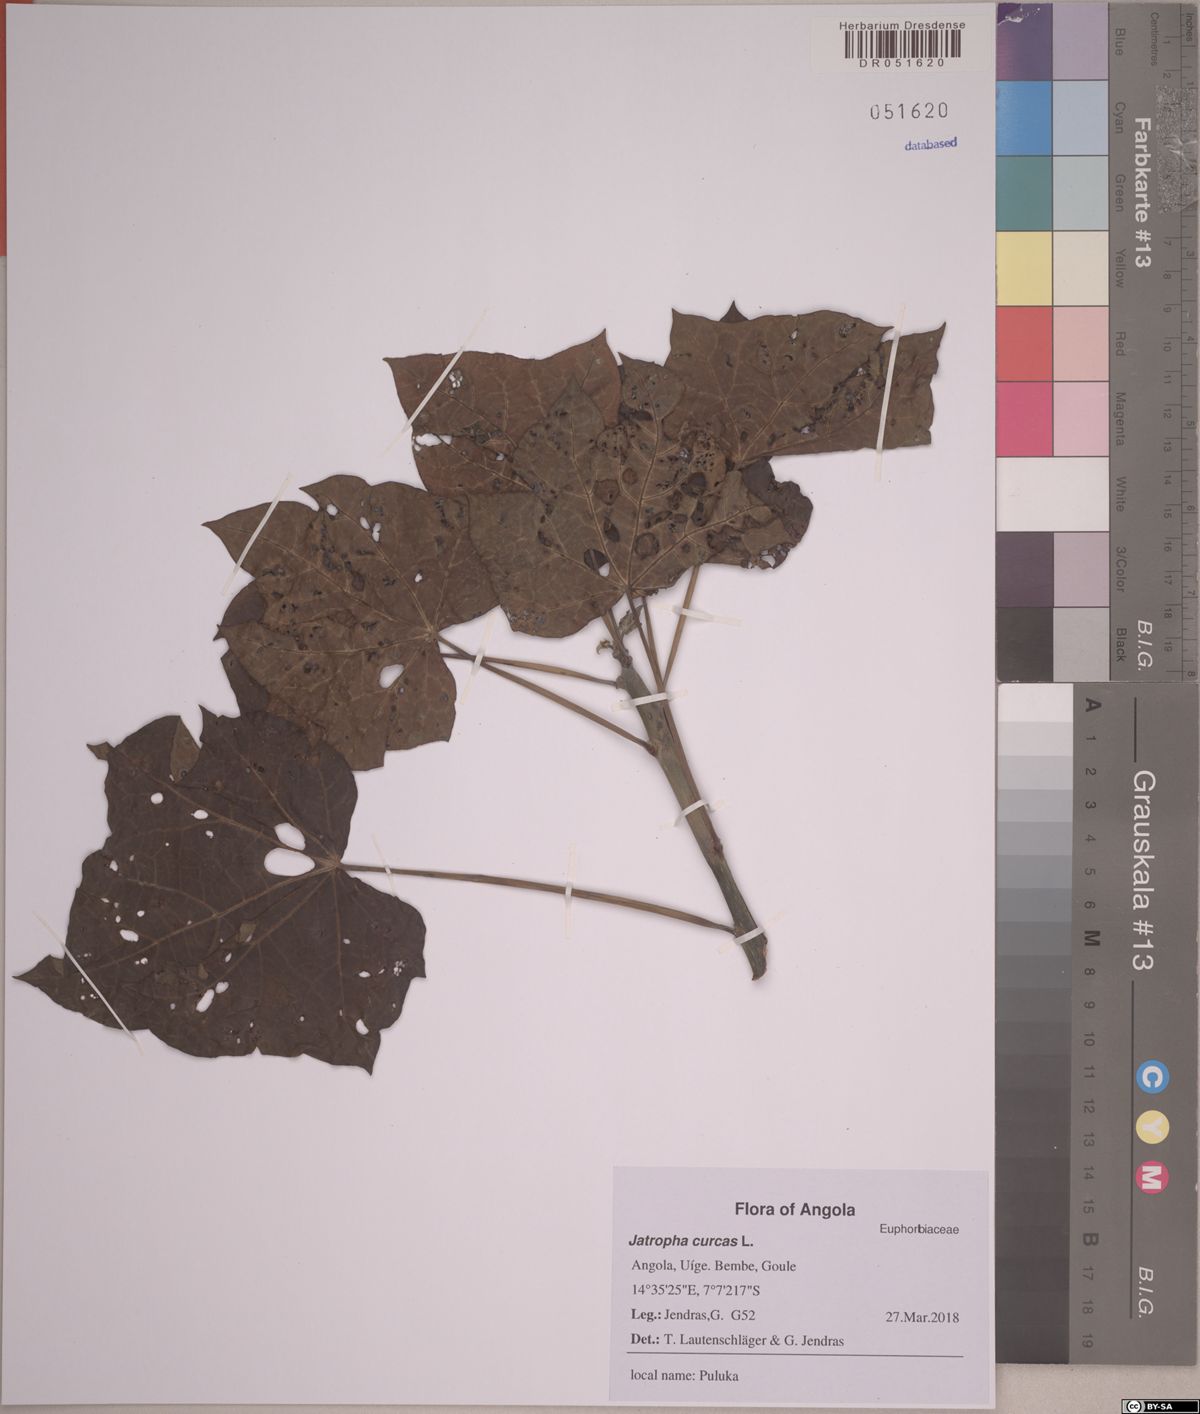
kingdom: Plantae
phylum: Tracheophyta
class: Magnoliopsida
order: Malpighiales
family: Euphorbiaceae
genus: Jatropha
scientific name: Jatropha curcas
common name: Barbados nut
